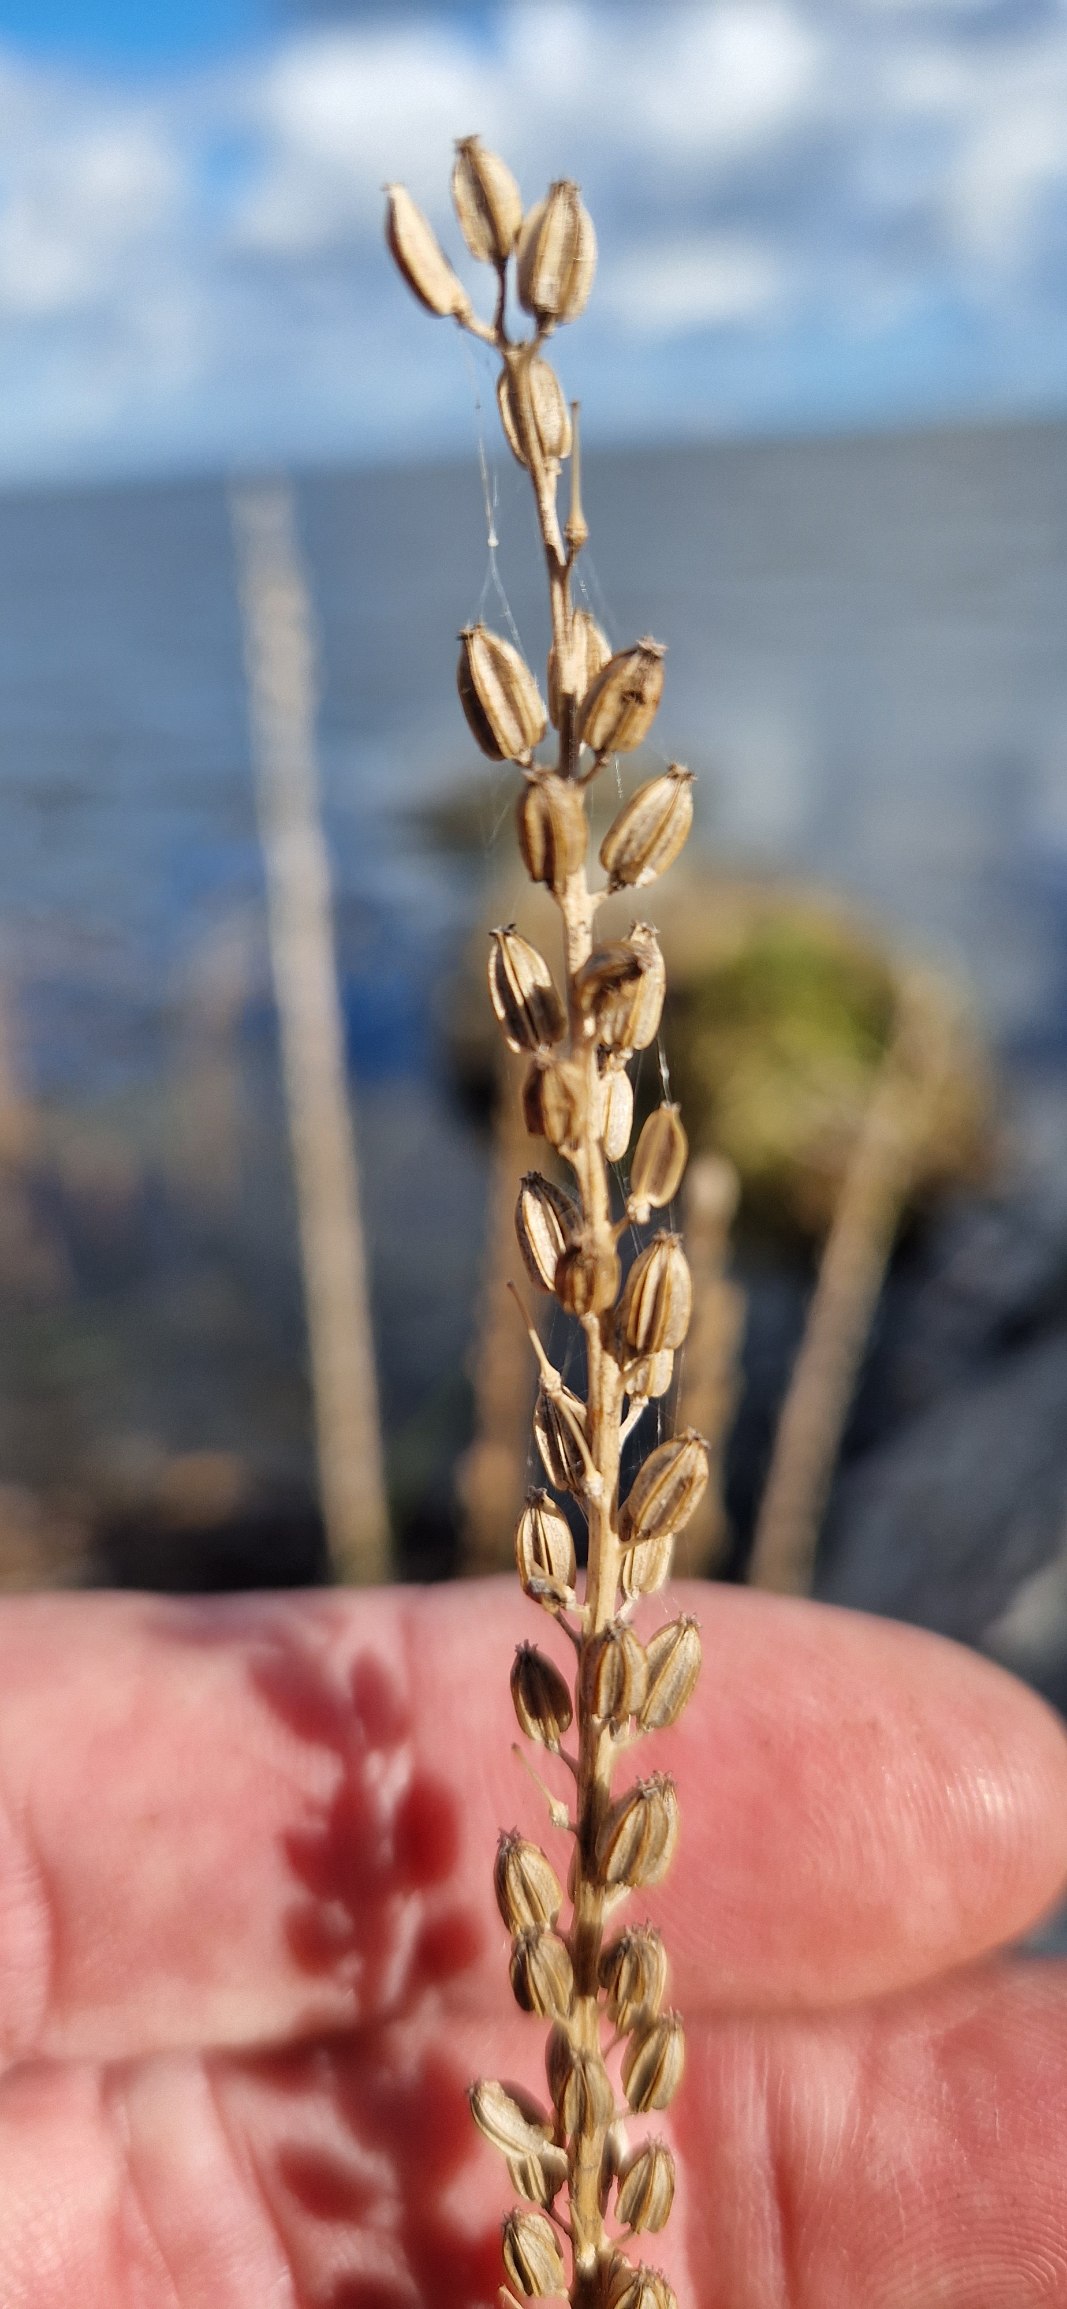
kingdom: Plantae
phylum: Tracheophyta
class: Liliopsida
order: Alismatales
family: Juncaginaceae
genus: Triglochin
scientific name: Triglochin maritima
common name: Strand-trehage
